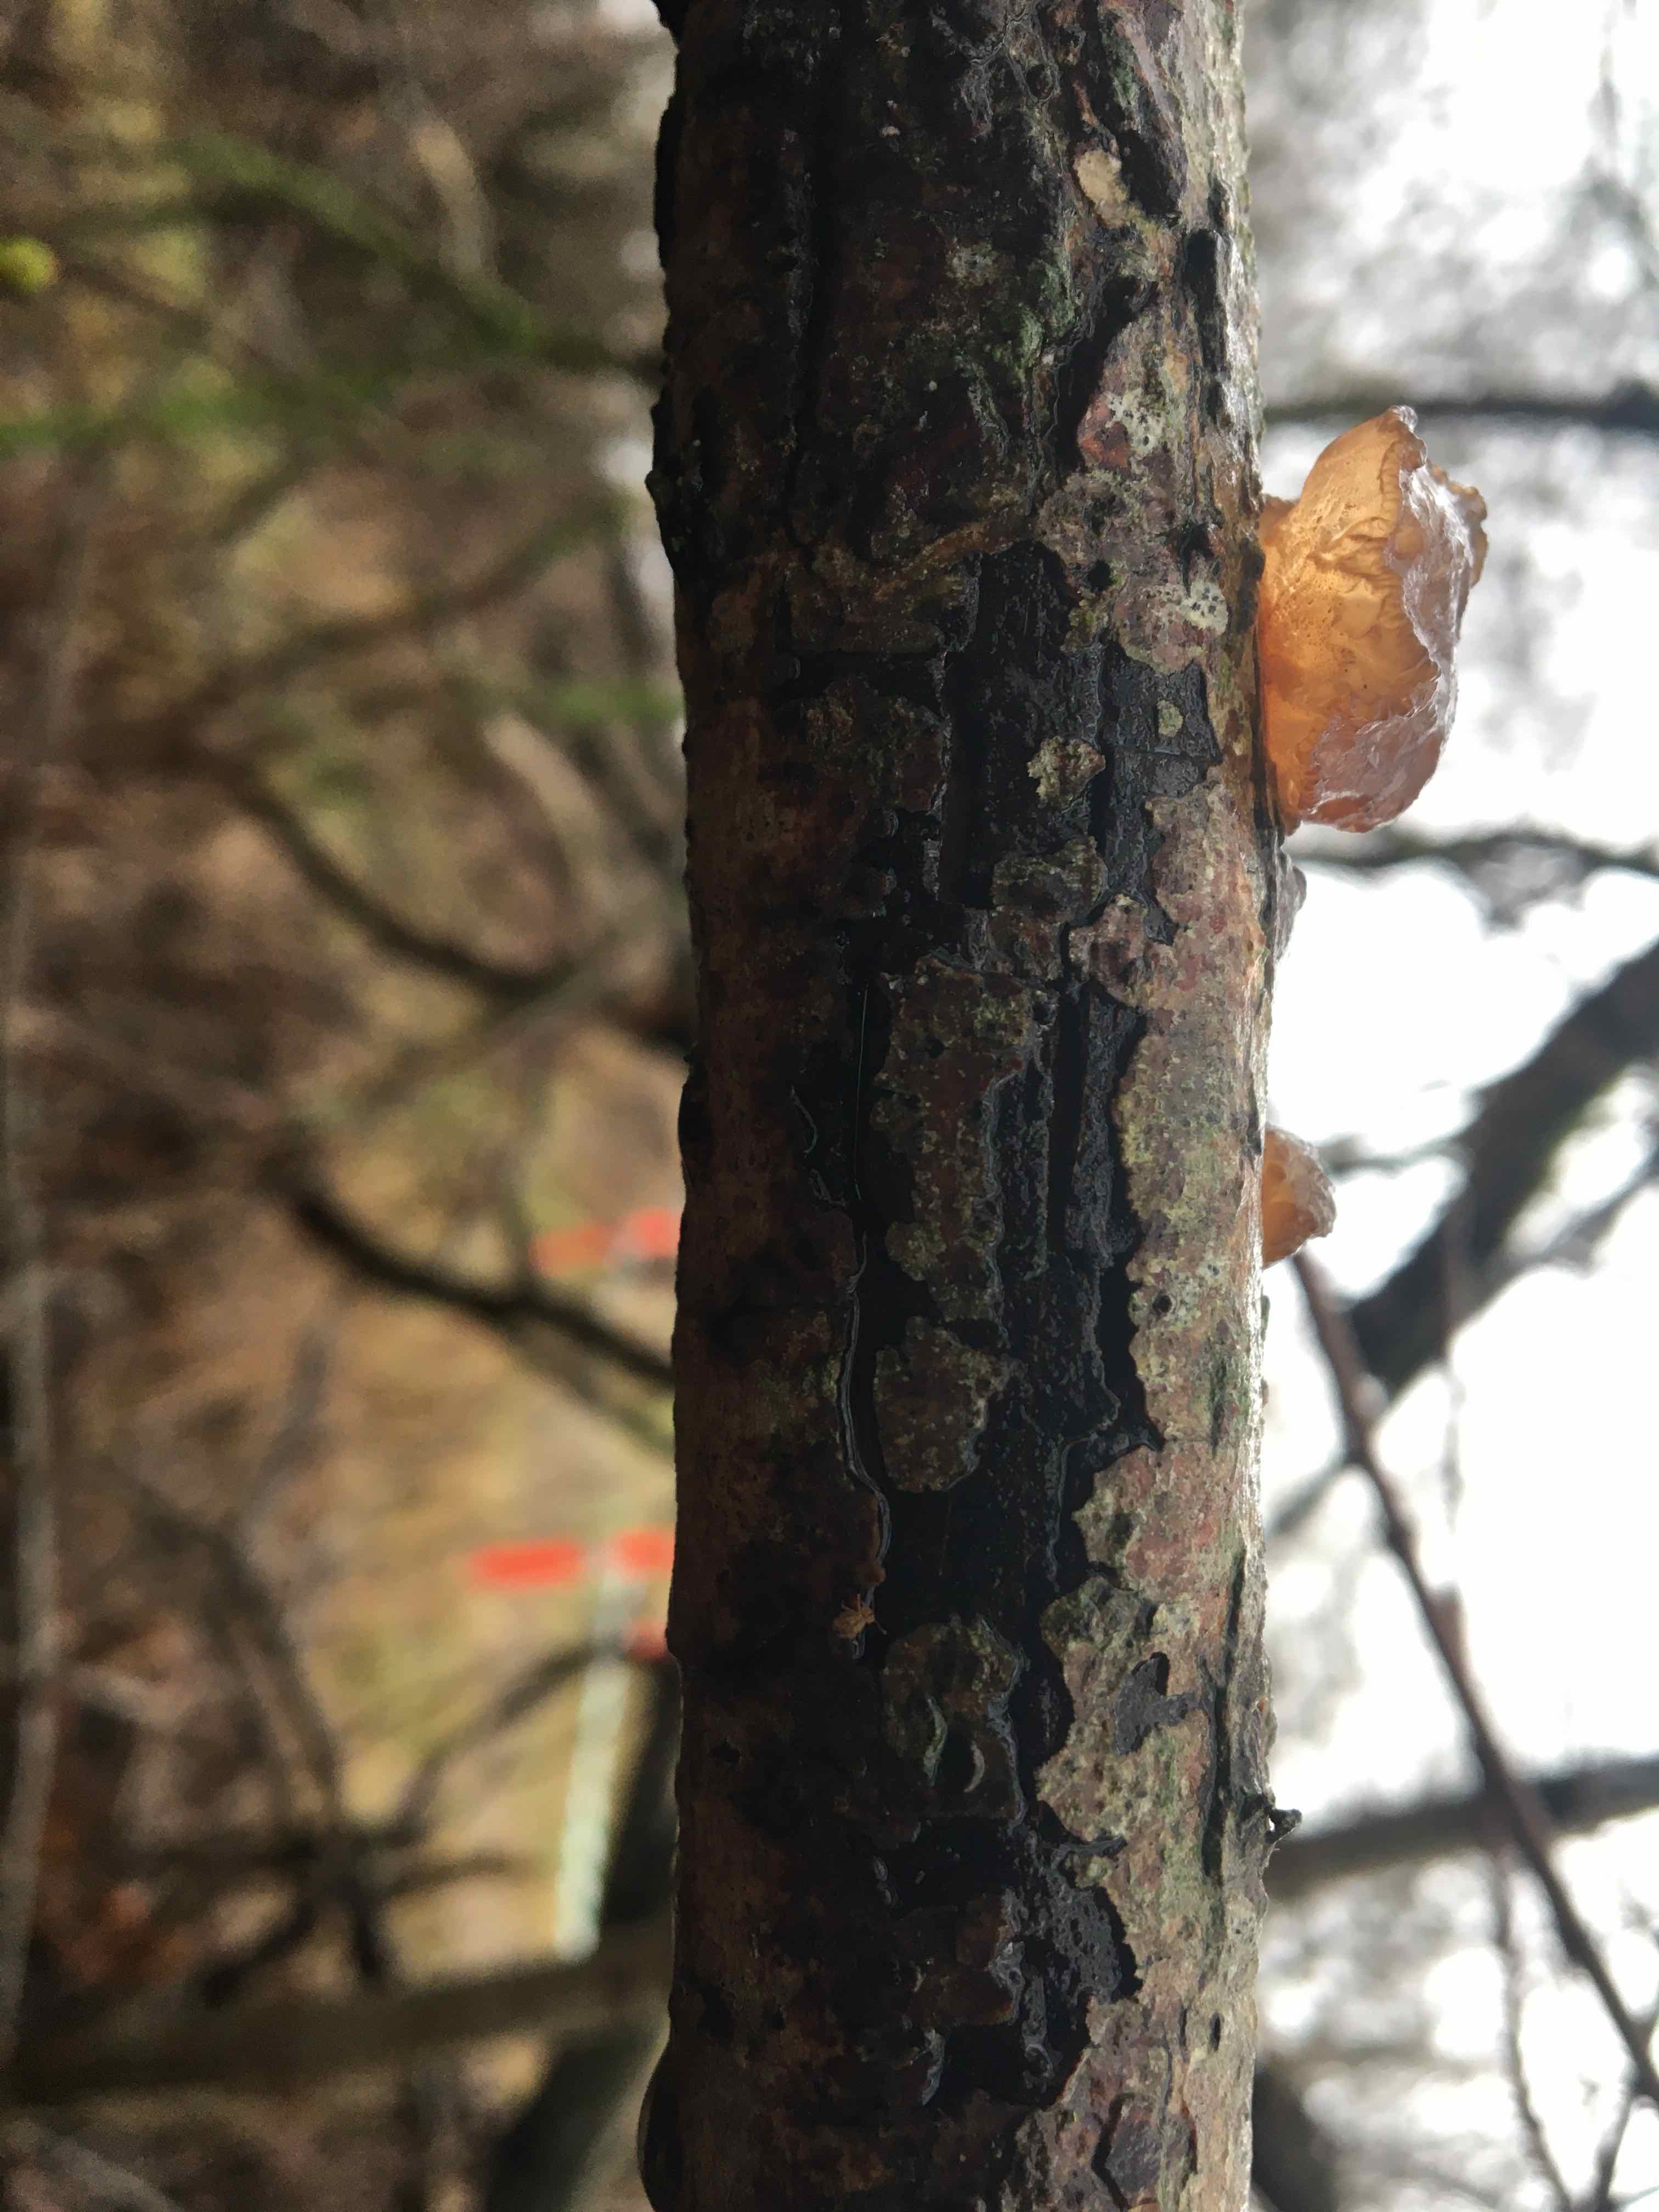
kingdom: Fungi
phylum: Basidiomycota
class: Agaricomycetes
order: Auriculariales
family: Auriculariaceae
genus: Exidia
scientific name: Exidia recisa
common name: pile-bævretop
